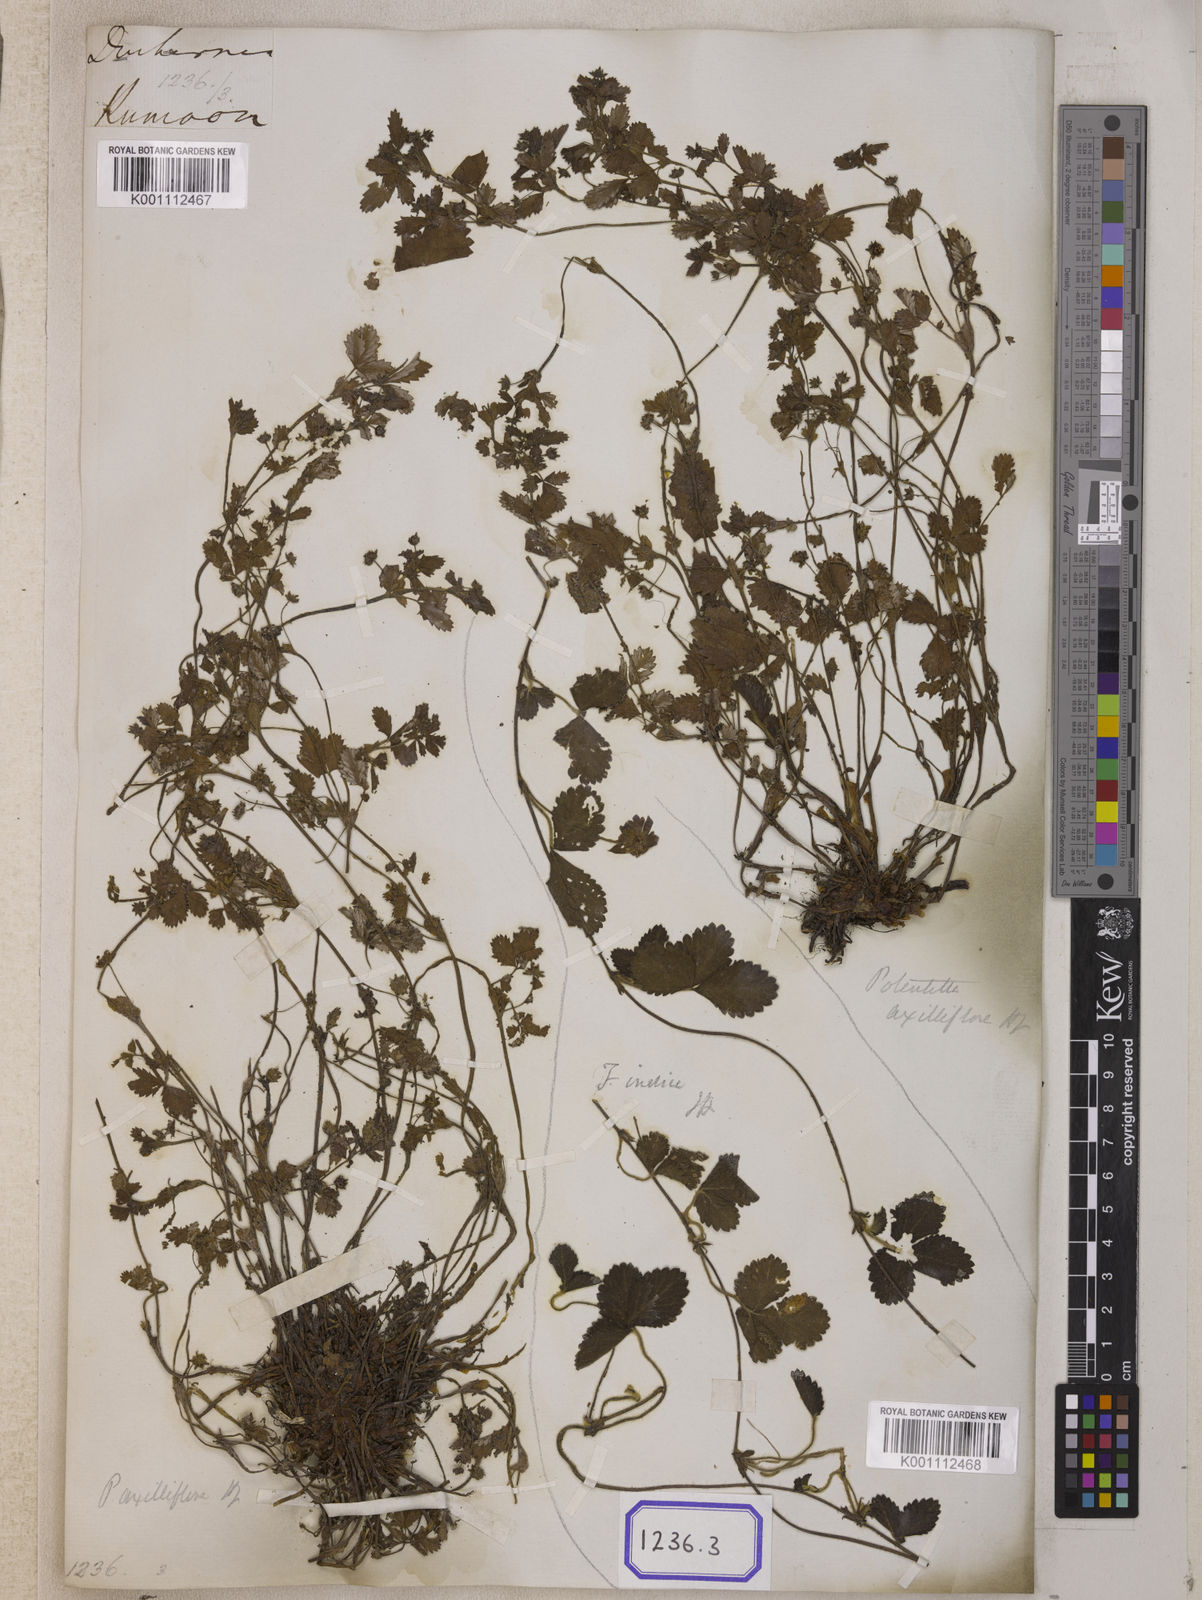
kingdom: Plantae
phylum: Tracheophyta
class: Magnoliopsida
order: Rosales
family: Rosaceae
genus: Potentilla
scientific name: Potentilla indica
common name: Yellow-flowered strawberry
